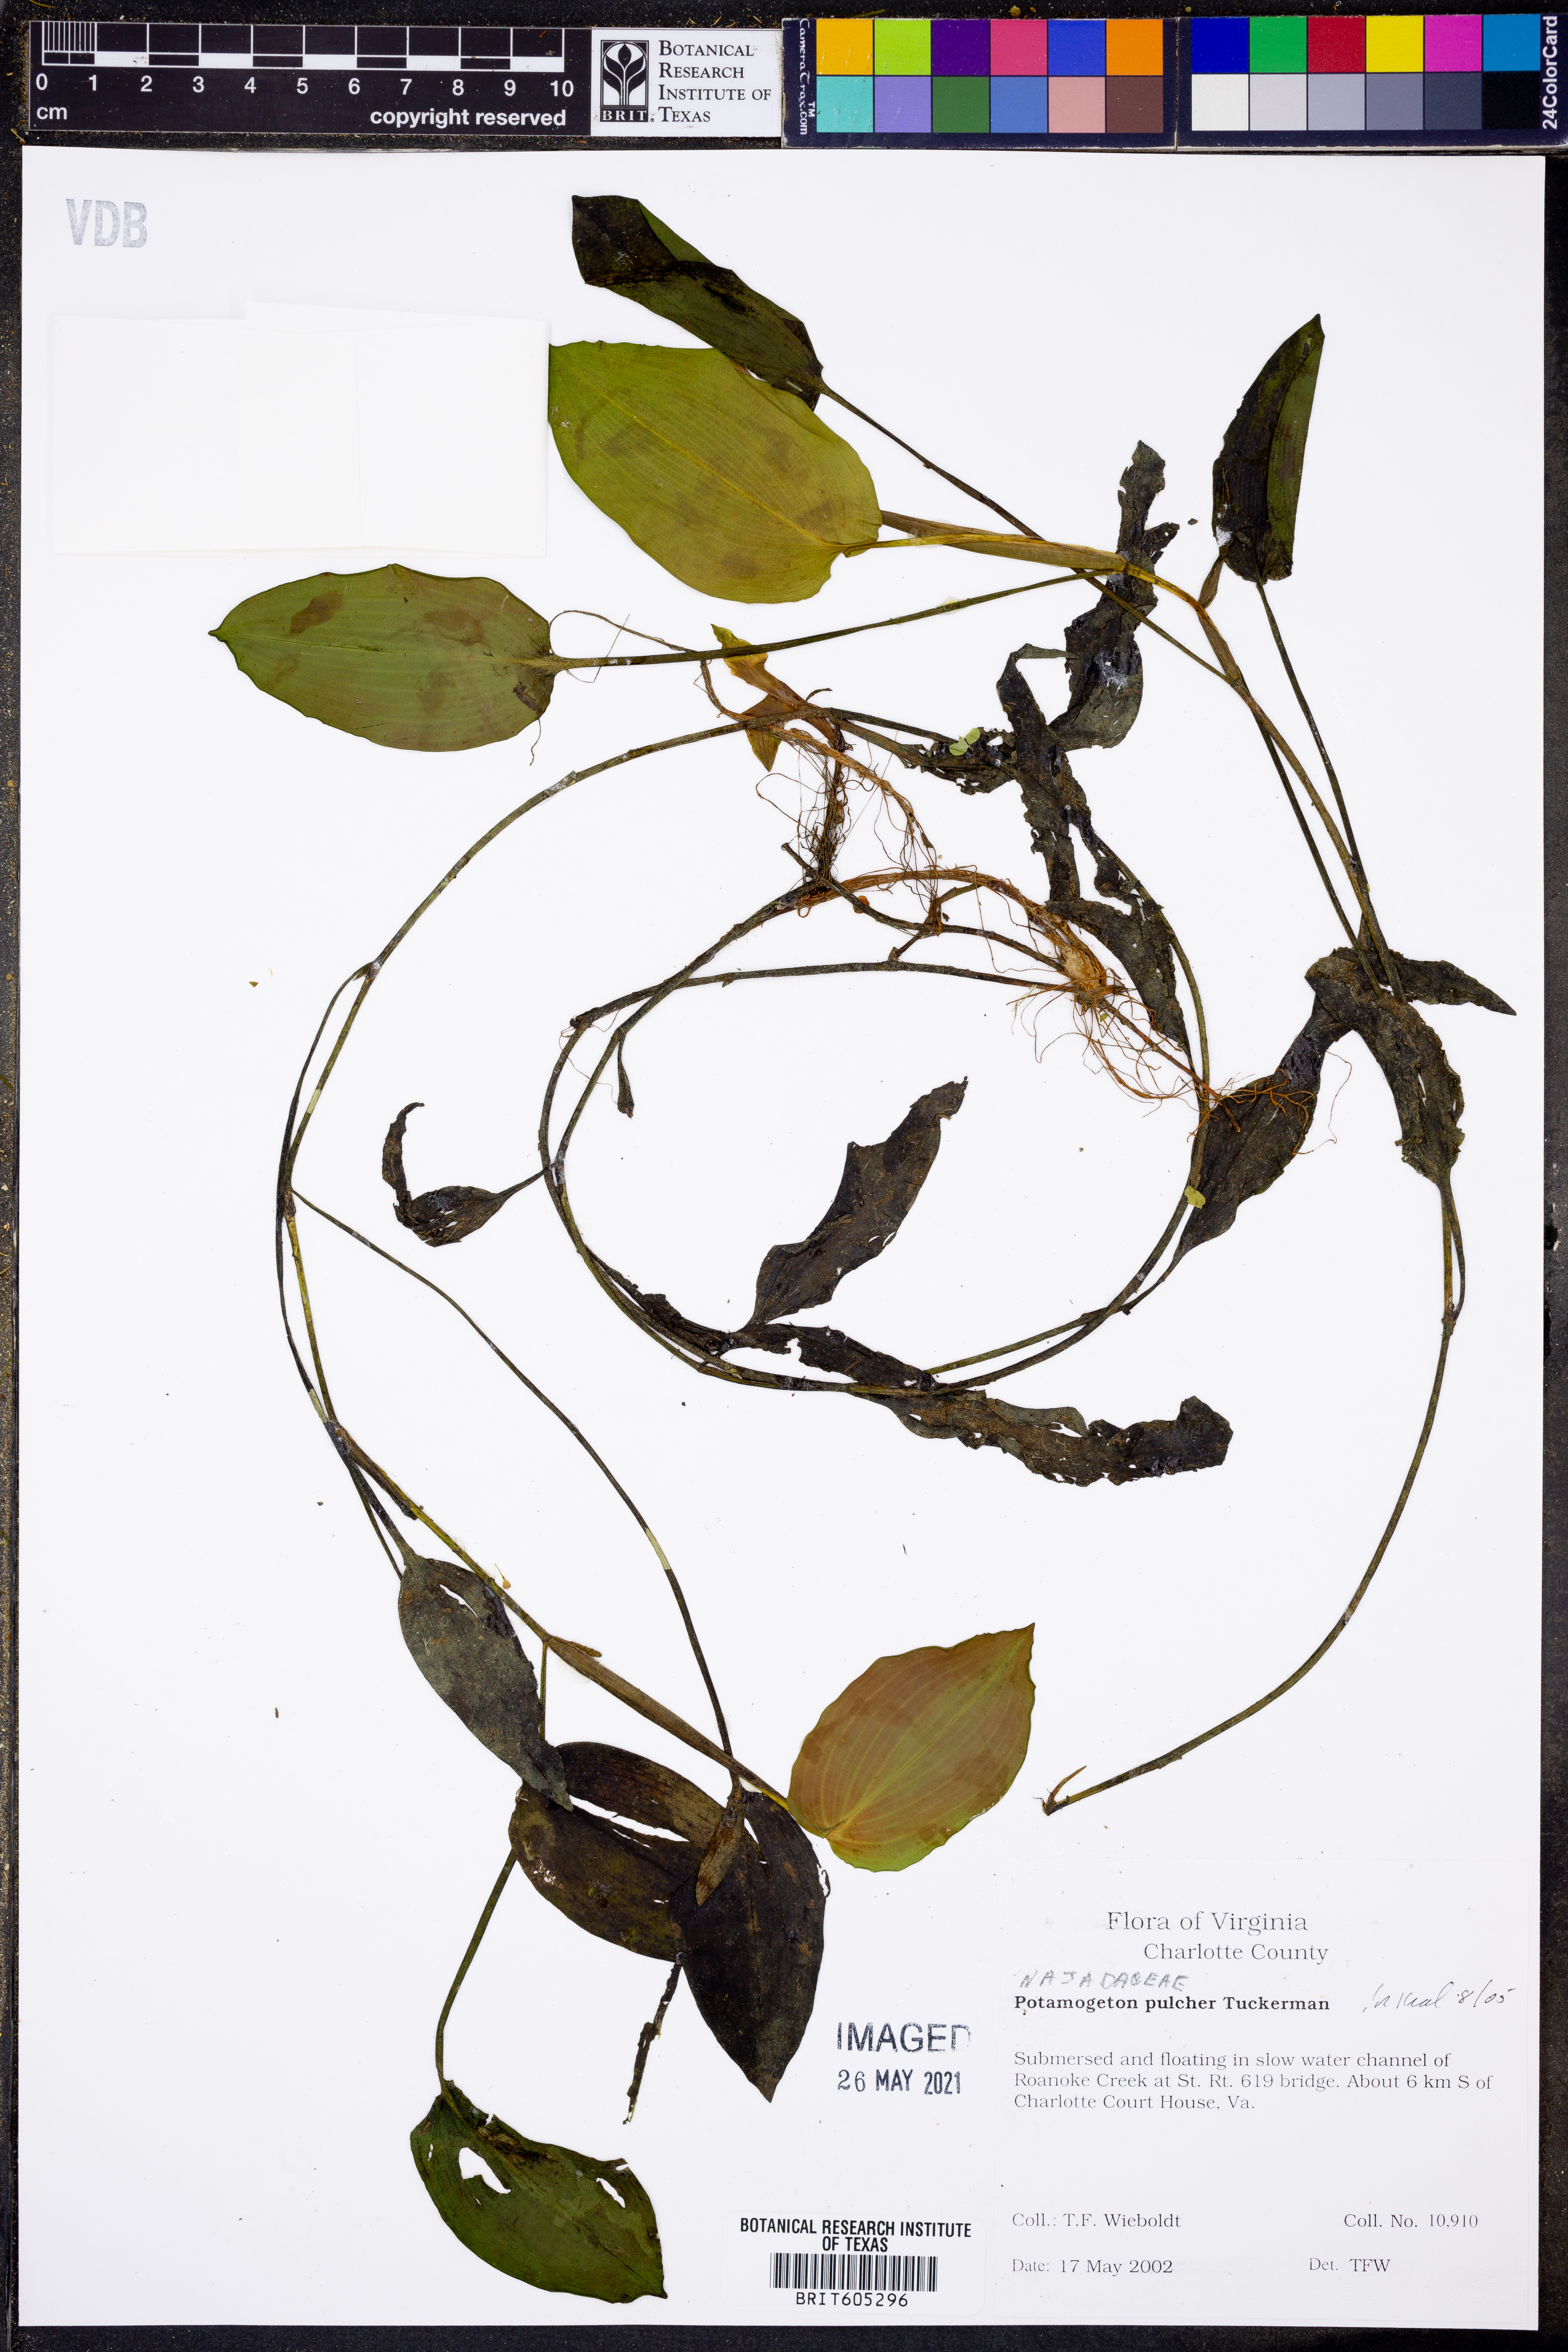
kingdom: Plantae
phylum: Tracheophyta
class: Liliopsida
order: Alismatales
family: Potamogetonaceae
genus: Potamogeton
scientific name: Potamogeton pulcher
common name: Heart-leaved pondweed
